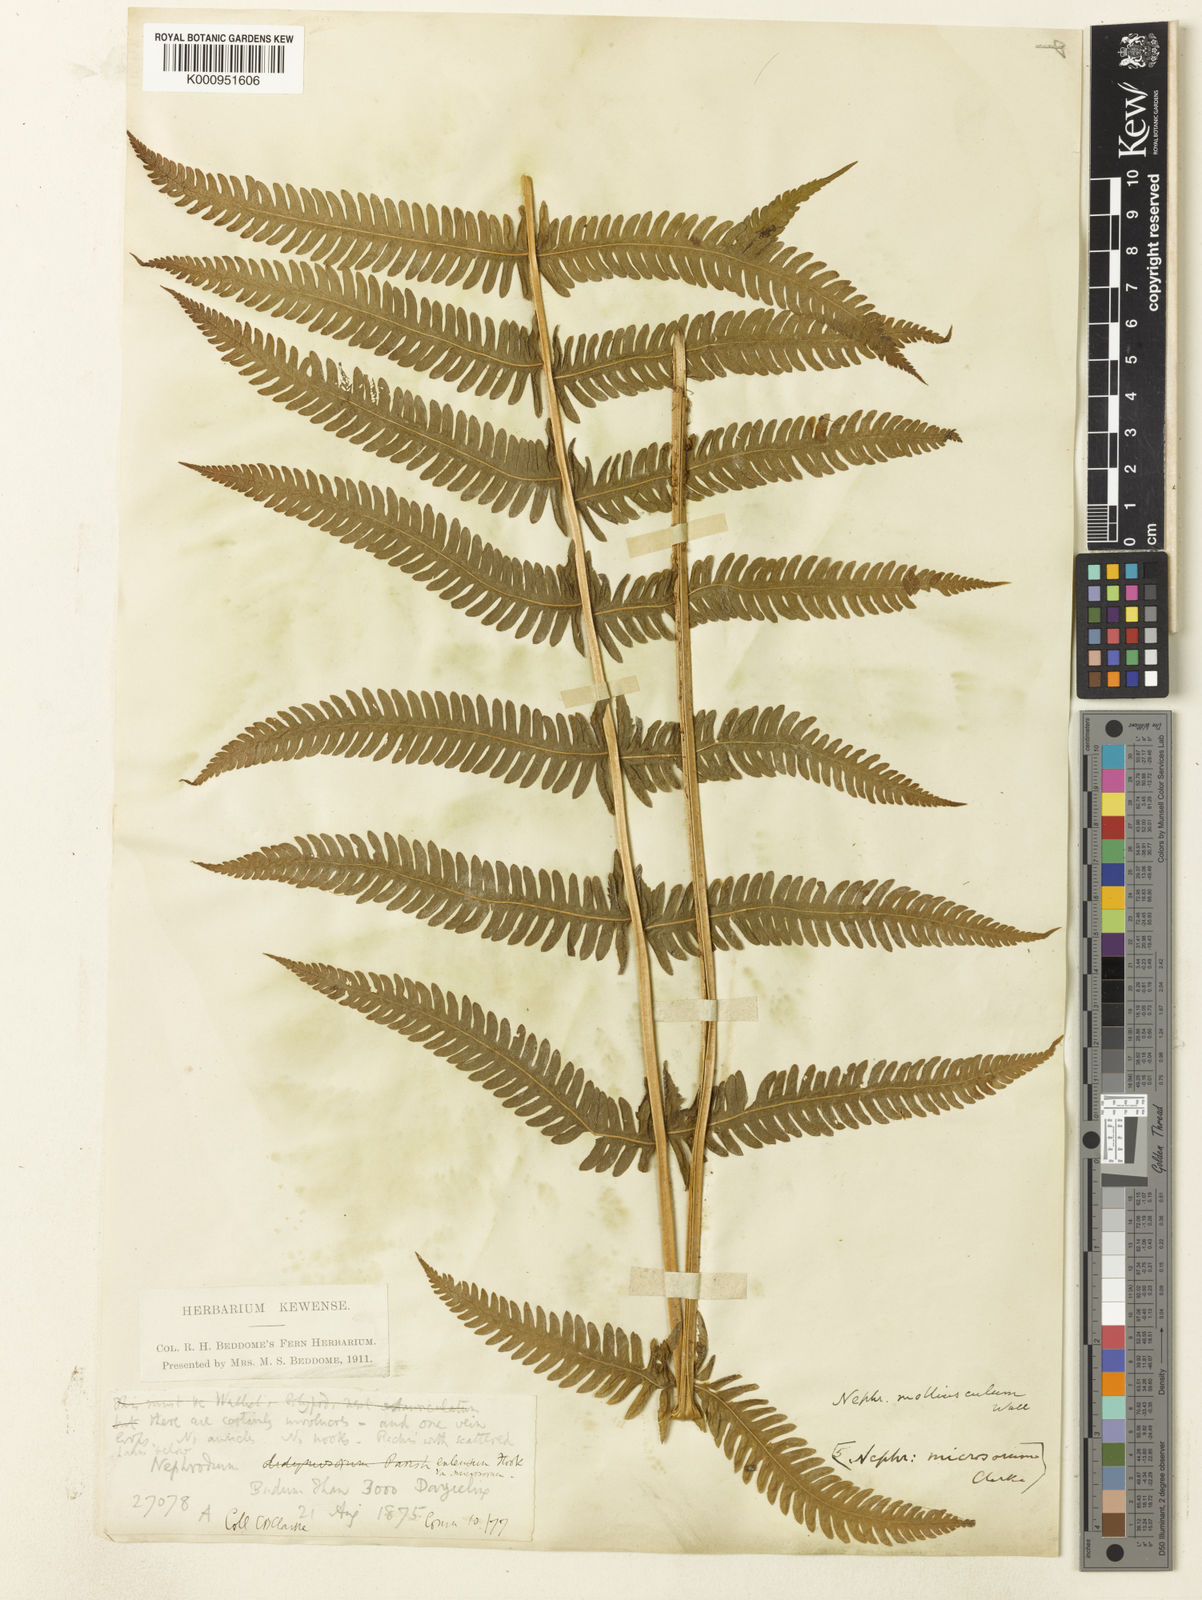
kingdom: Plantae
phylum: Tracheophyta
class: Polypodiopsida
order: Polypodiales
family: Thelypteridaceae
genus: Christella
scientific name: Christella procera
